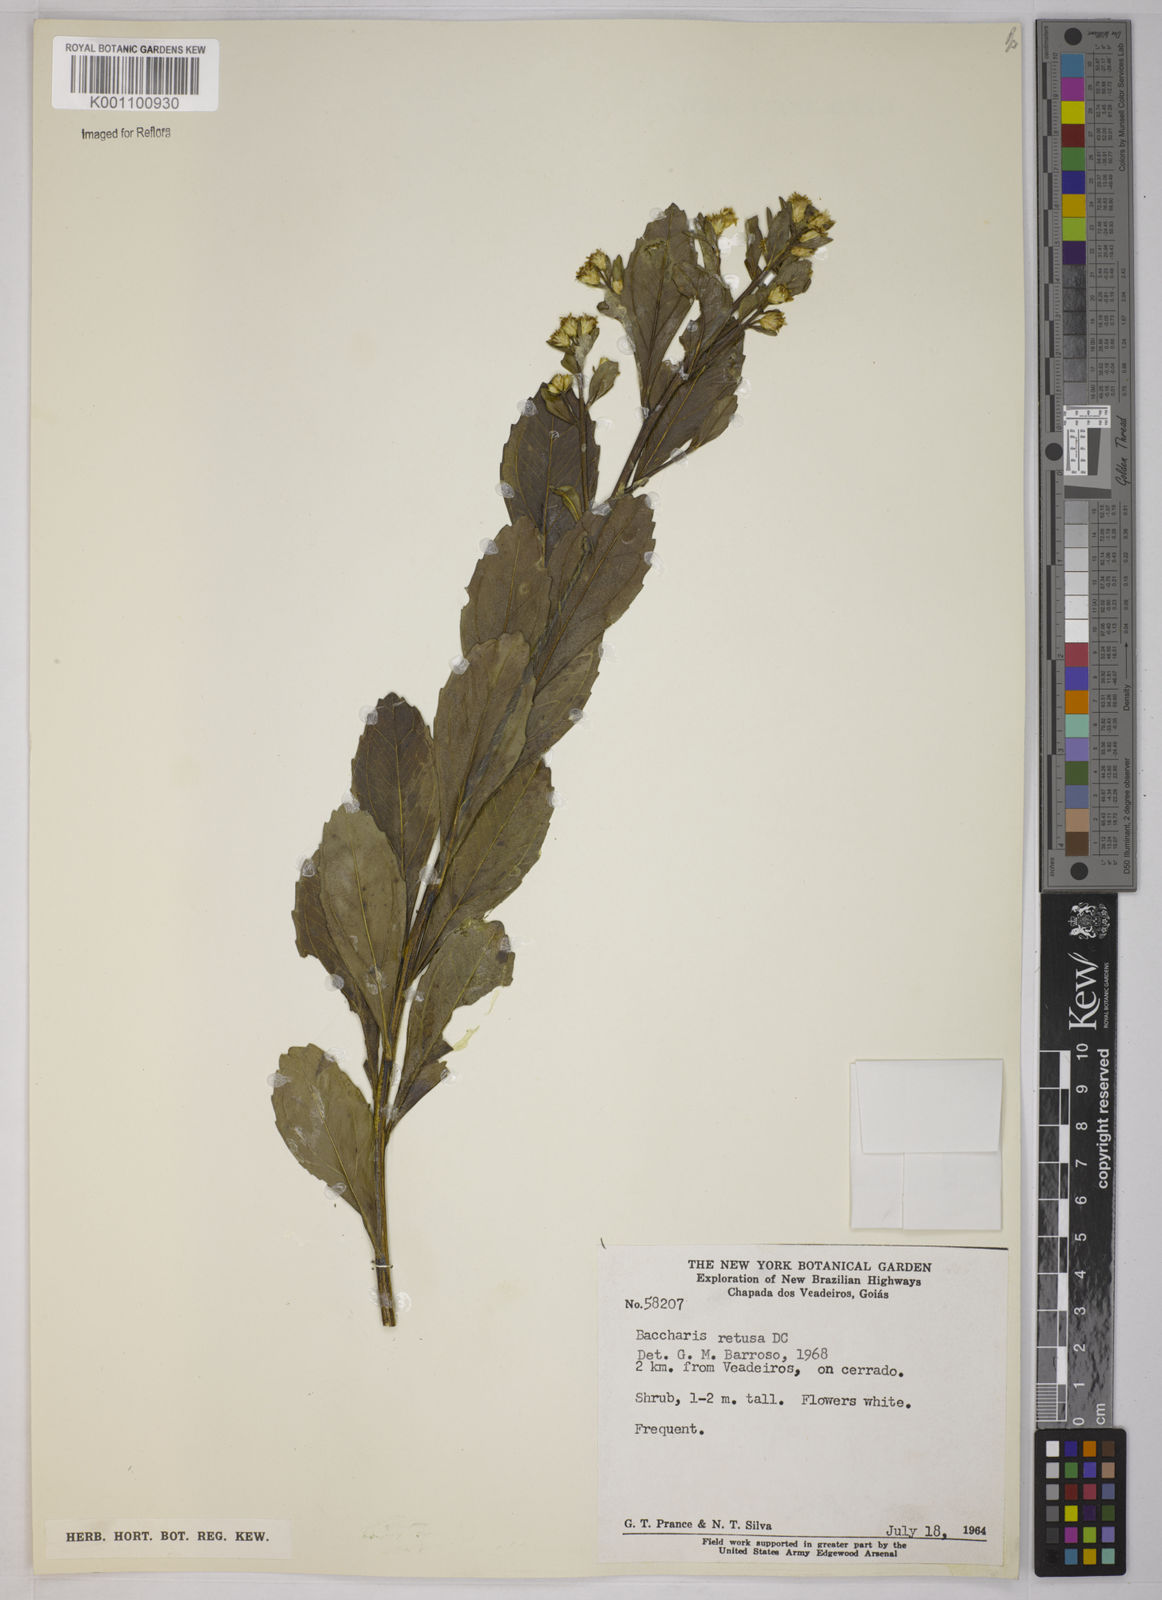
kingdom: Plantae
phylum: Tracheophyta
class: Magnoliopsida
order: Asterales
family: Asteraceae
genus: Baccharis
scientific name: Baccharis retusa
